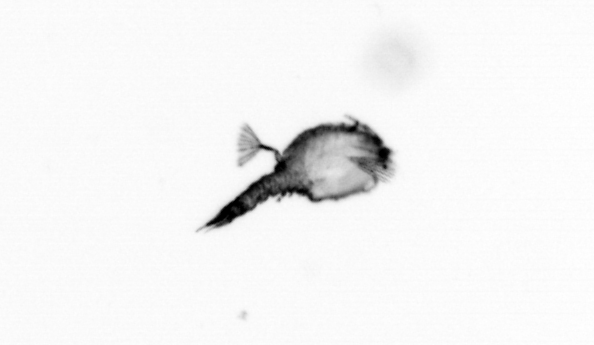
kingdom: Animalia
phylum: Arthropoda
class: Copepoda
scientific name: Copepoda
